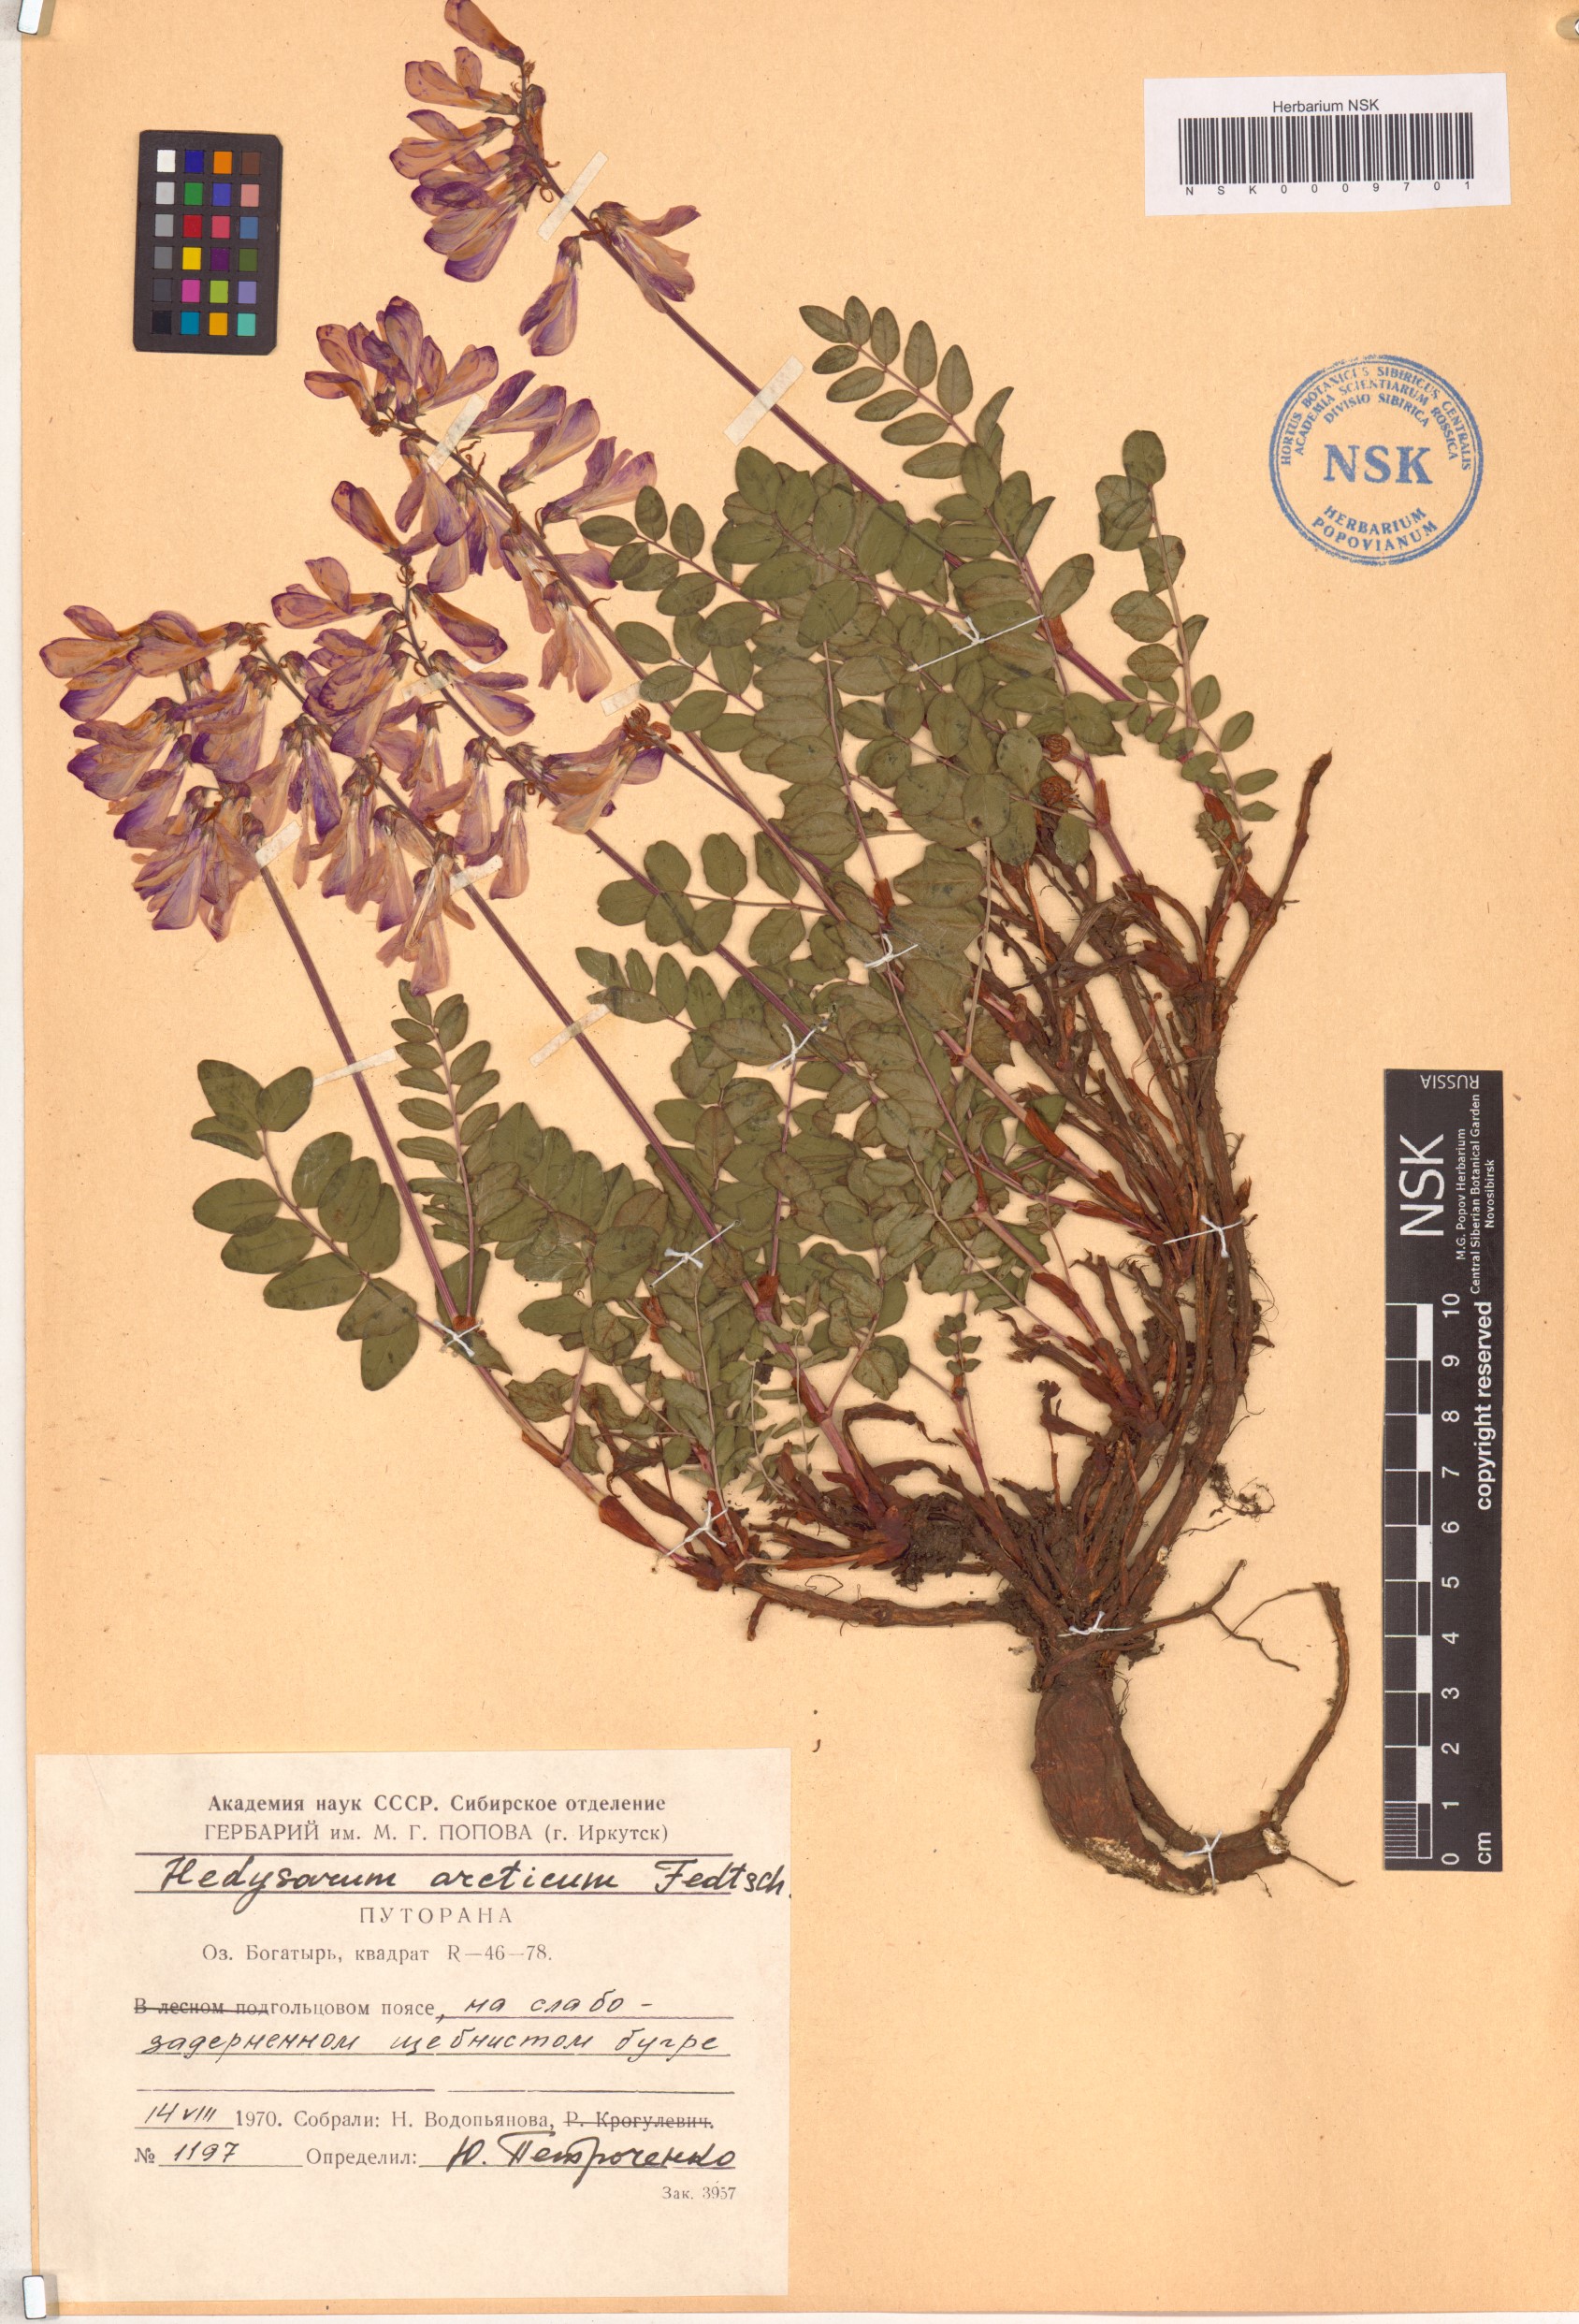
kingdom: Plantae
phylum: Tracheophyta
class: Magnoliopsida
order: Fabales
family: Fabaceae
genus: Hedysarum
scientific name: Hedysarum hedysaroides
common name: Alpine french-honeysuckle
